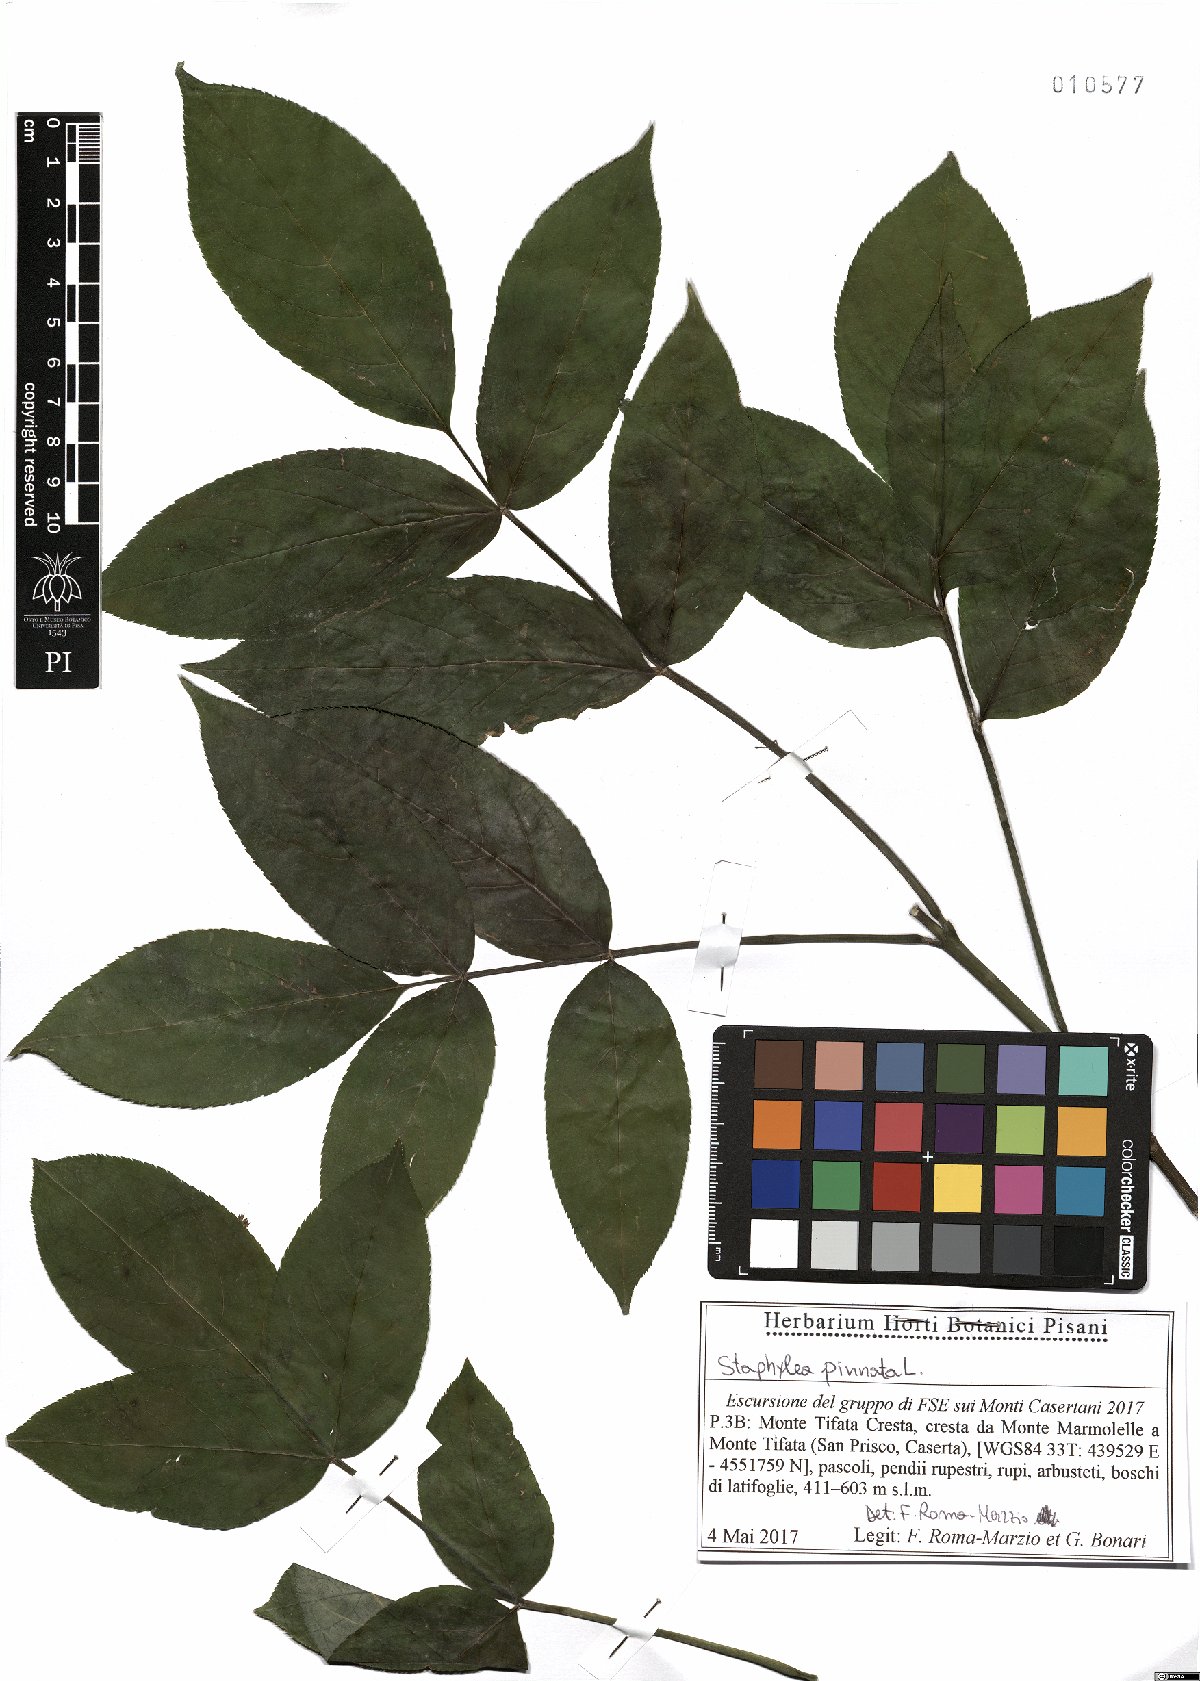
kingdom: Plantae
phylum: Tracheophyta
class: Magnoliopsida
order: Crossosomatales
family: Staphyleaceae
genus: Staphylea
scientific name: Staphylea pinnata
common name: Bladdernut
